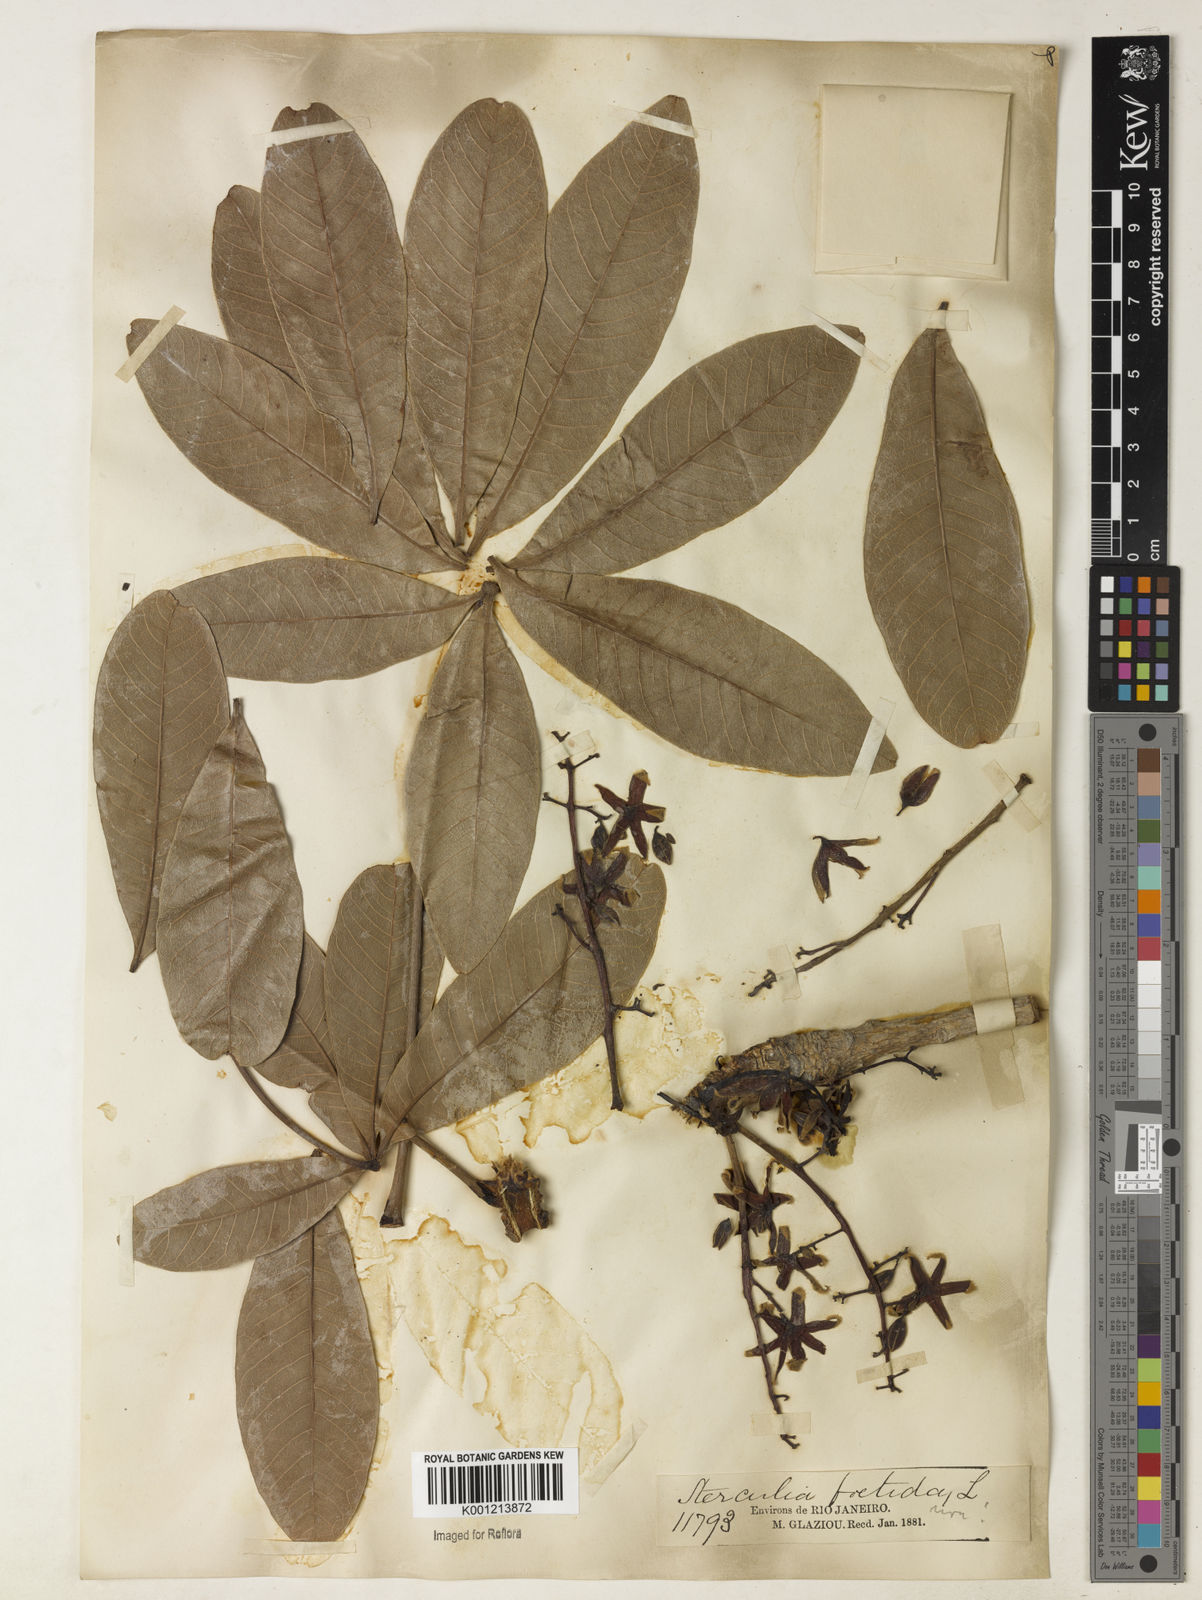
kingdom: Plantae
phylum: Tracheophyta
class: Magnoliopsida
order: Malvales
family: Malvaceae
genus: Sterculia
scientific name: Sterculia foetida
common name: Hazel sterculia
